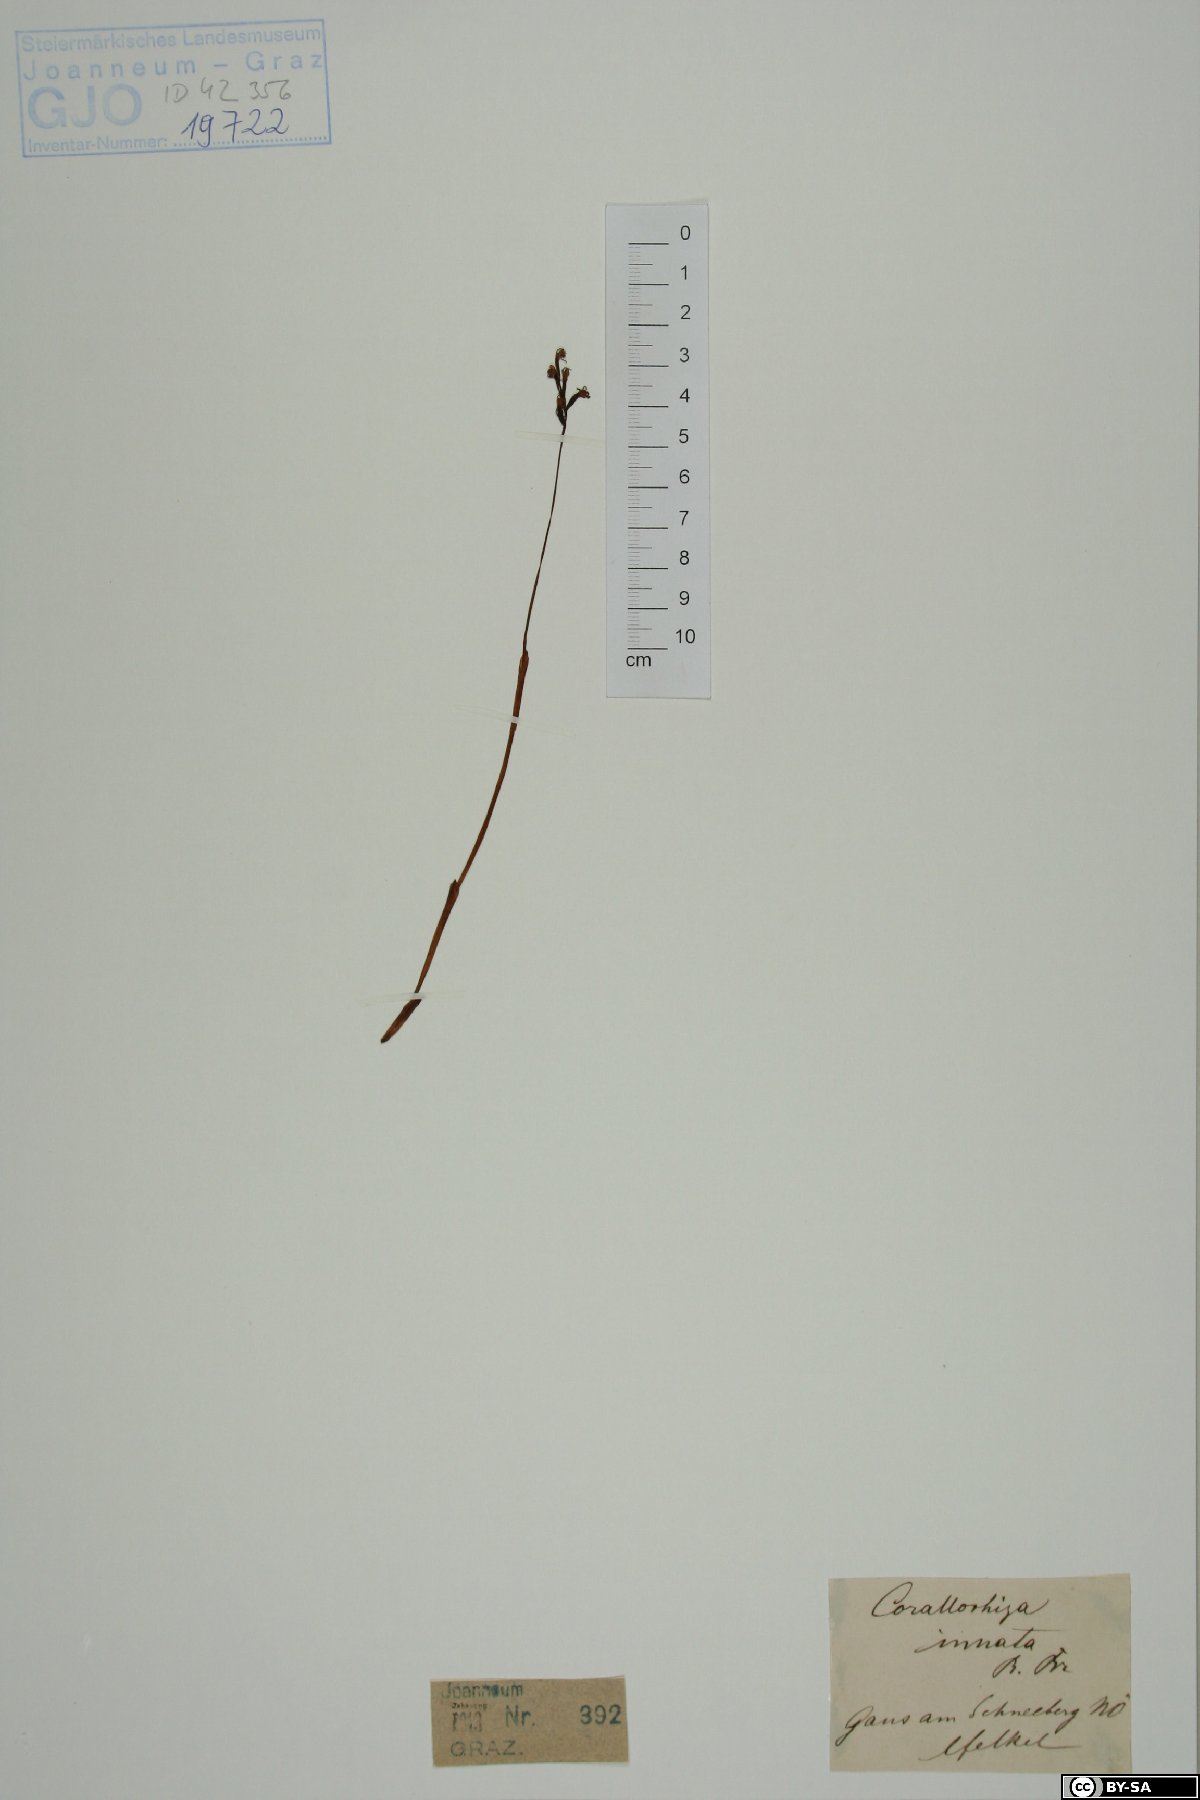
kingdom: Plantae
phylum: Tracheophyta
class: Liliopsida
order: Asparagales
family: Orchidaceae
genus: Corallorhiza
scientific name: Corallorhiza trifida
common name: Yellow coralroot
